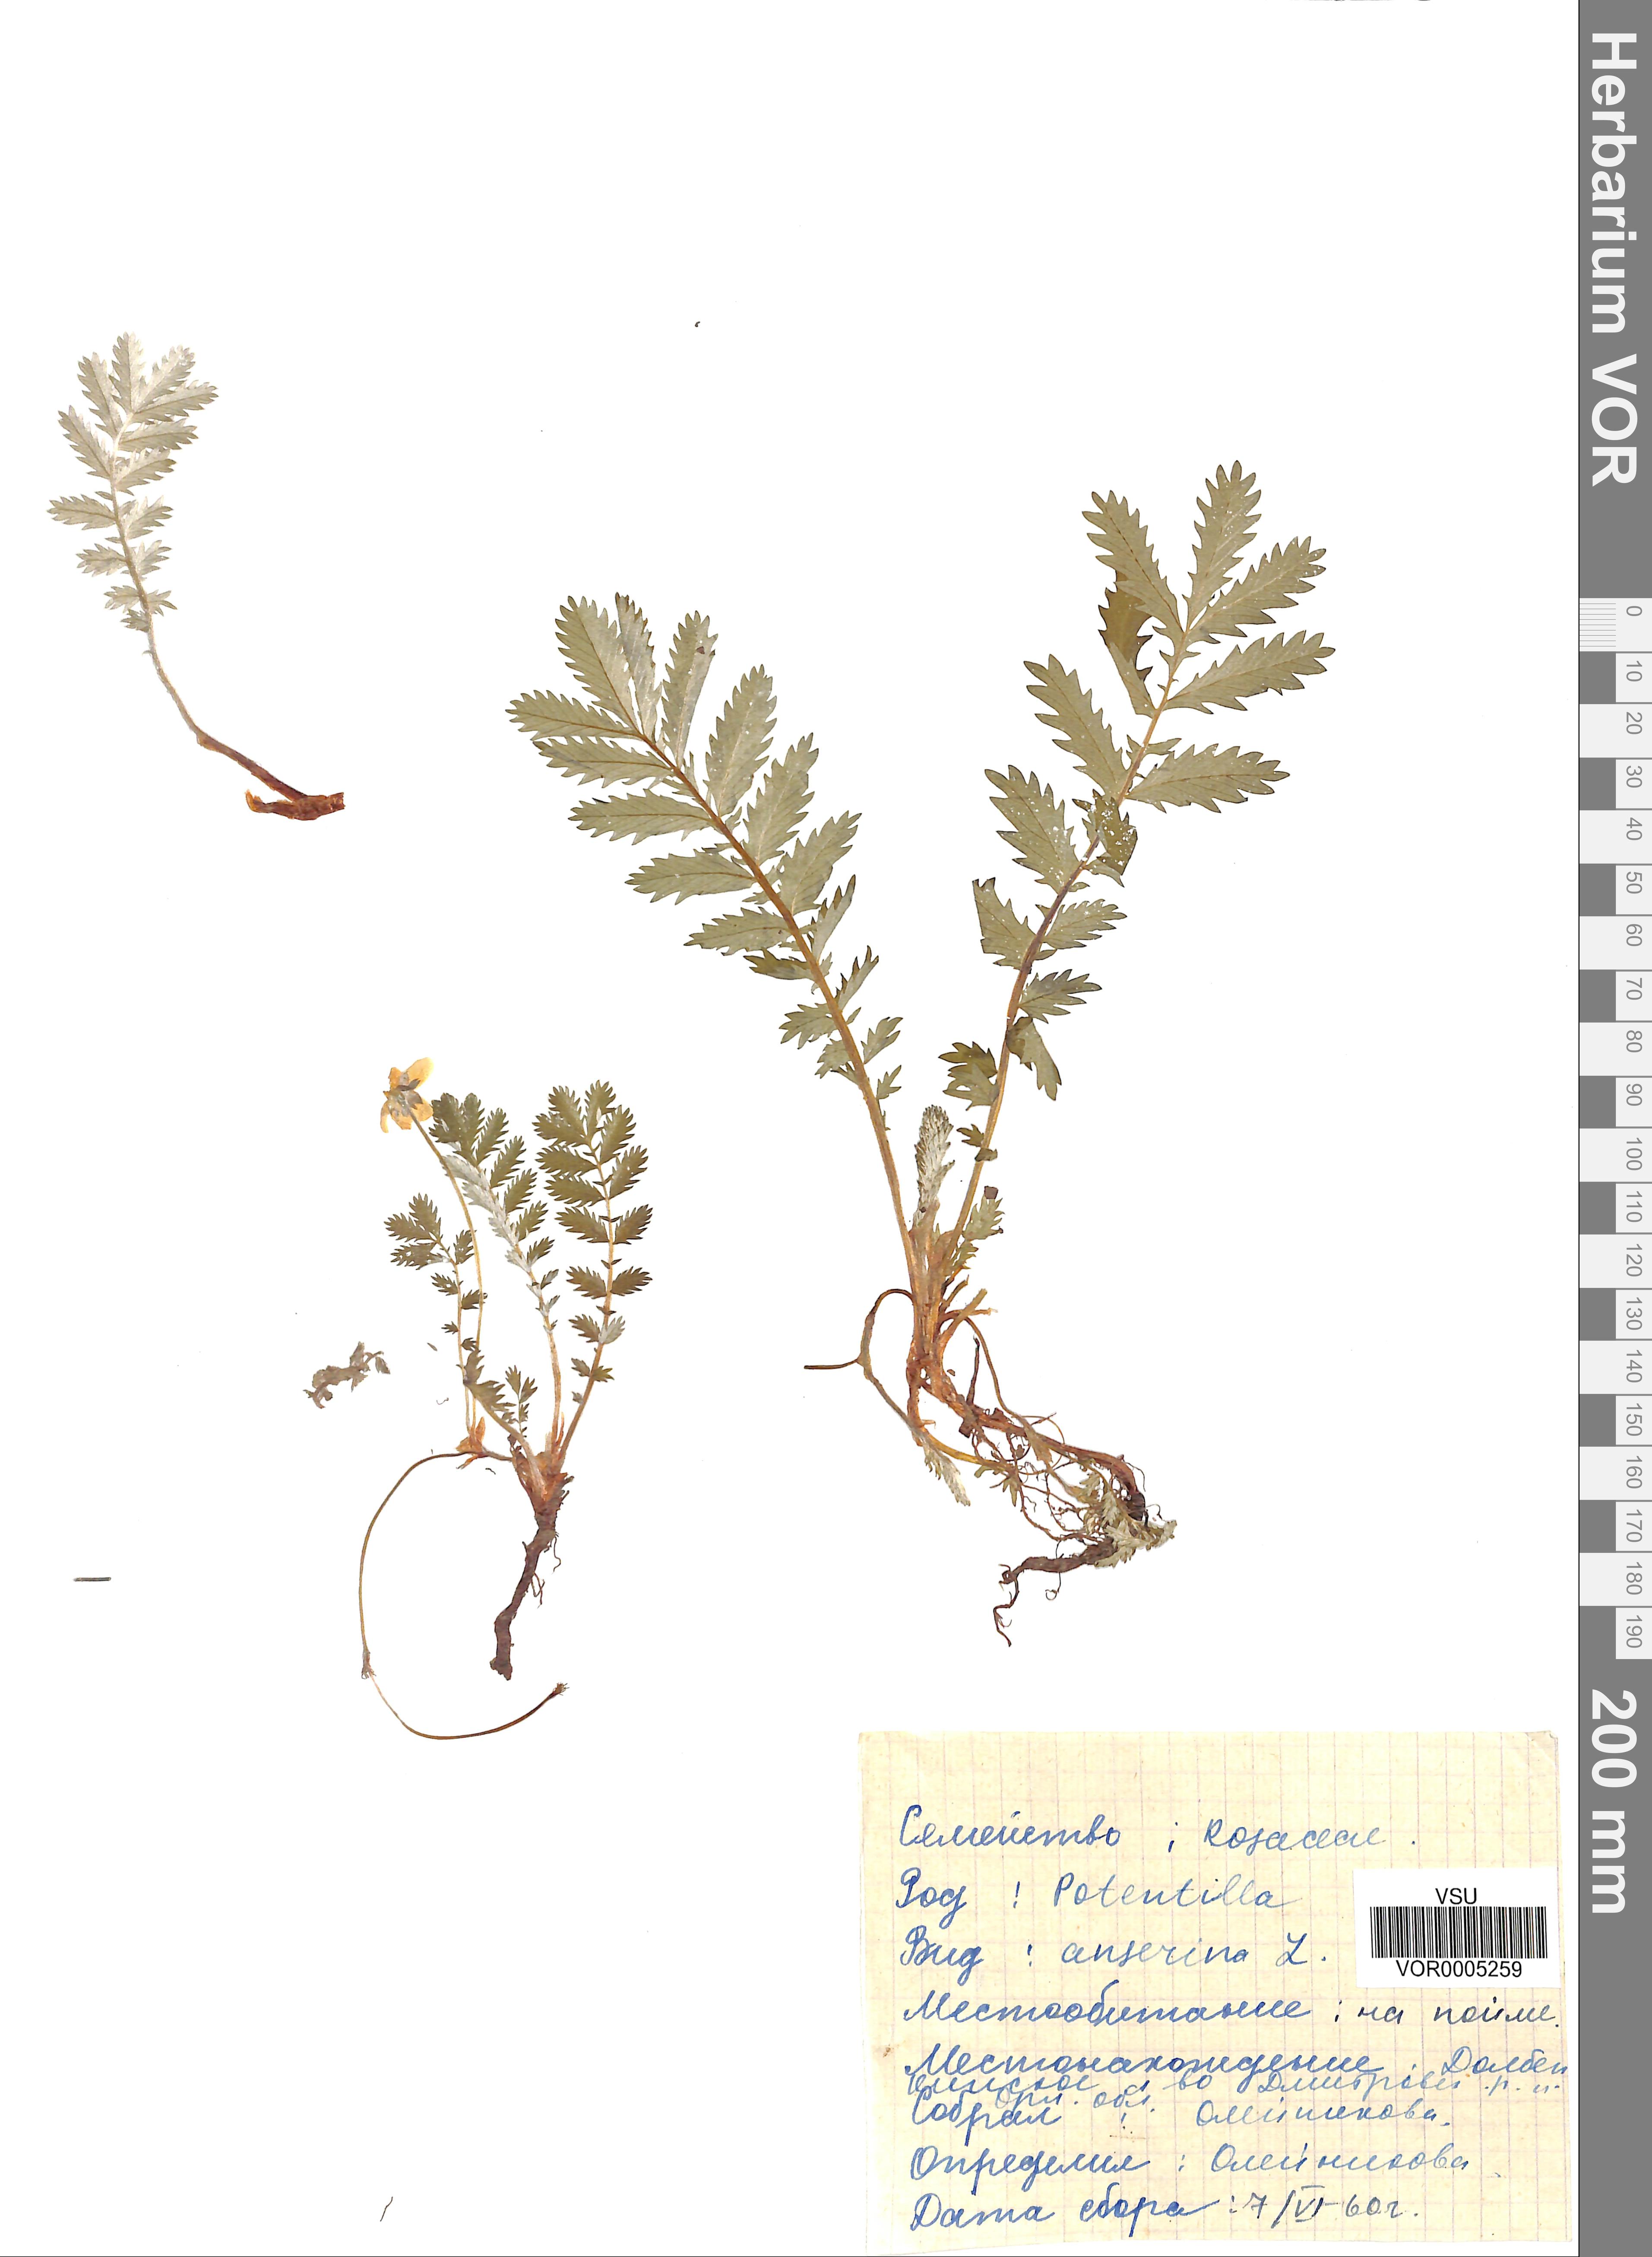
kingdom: Plantae
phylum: Tracheophyta
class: Magnoliopsida
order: Rosales
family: Rosaceae
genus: Argentina
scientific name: Argentina anserina
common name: Common silverweed
